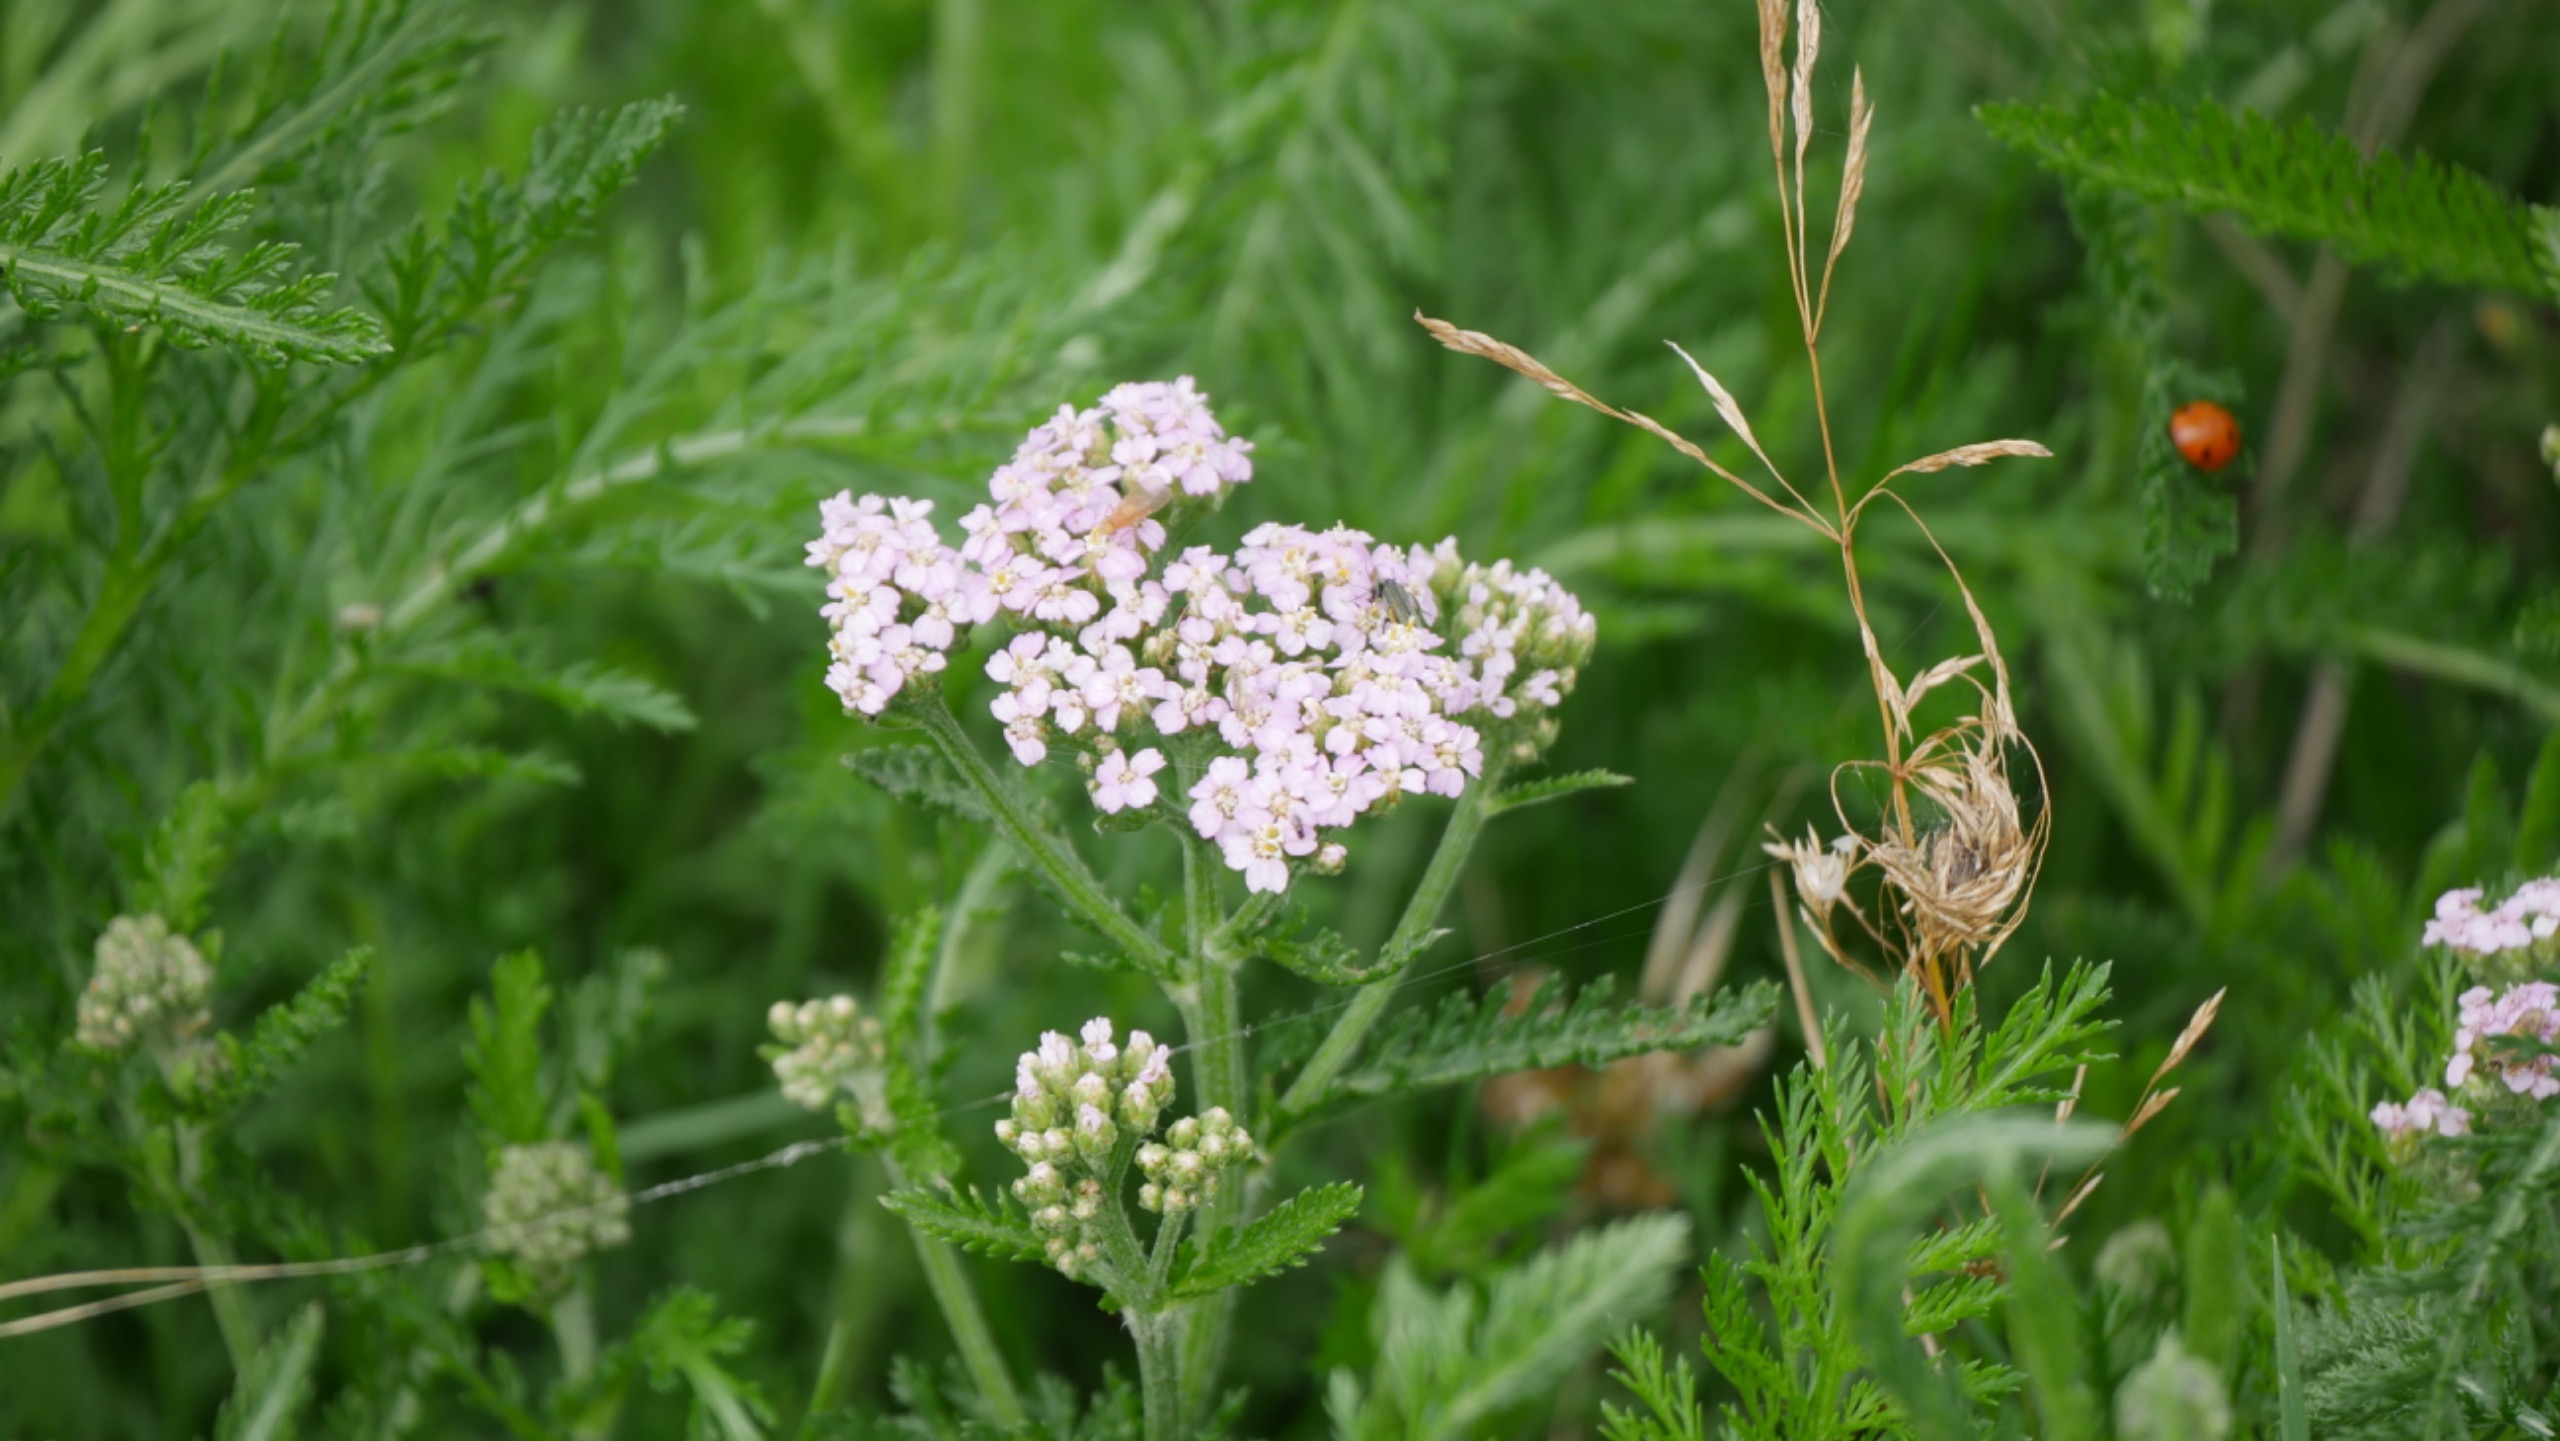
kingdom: Plantae
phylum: Tracheophyta
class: Magnoliopsida
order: Asterales
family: Asteraceae
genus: Achillea
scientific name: Achillea millefolium
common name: Almindelig røllike
